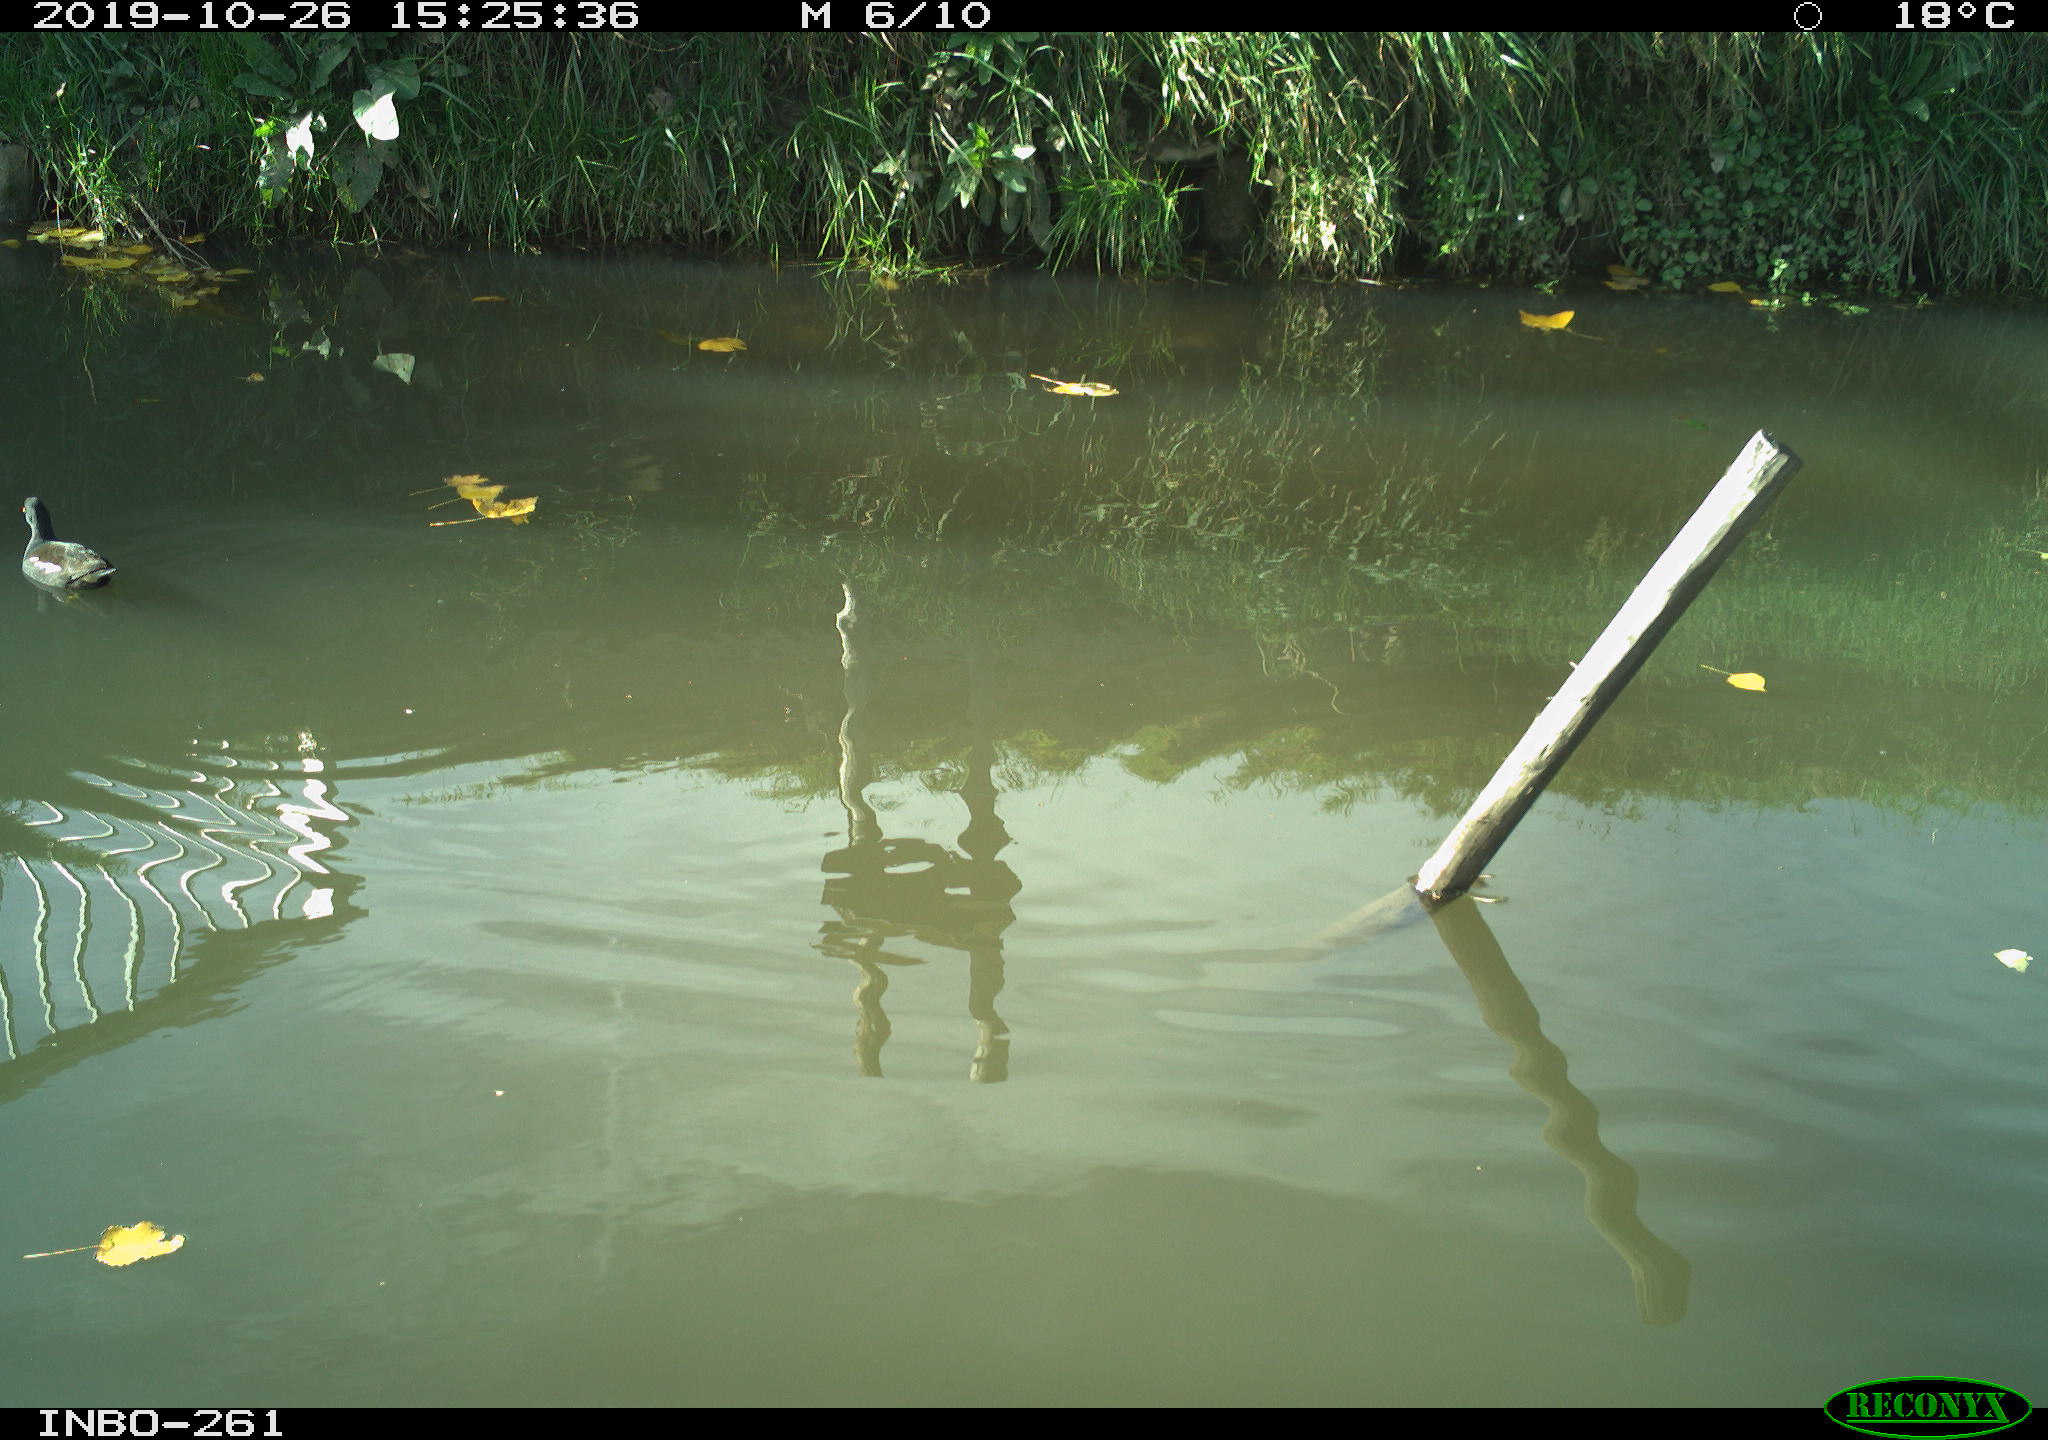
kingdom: Animalia
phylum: Chordata
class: Aves
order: Gruiformes
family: Rallidae
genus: Gallinula
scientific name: Gallinula chloropus
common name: Common moorhen
